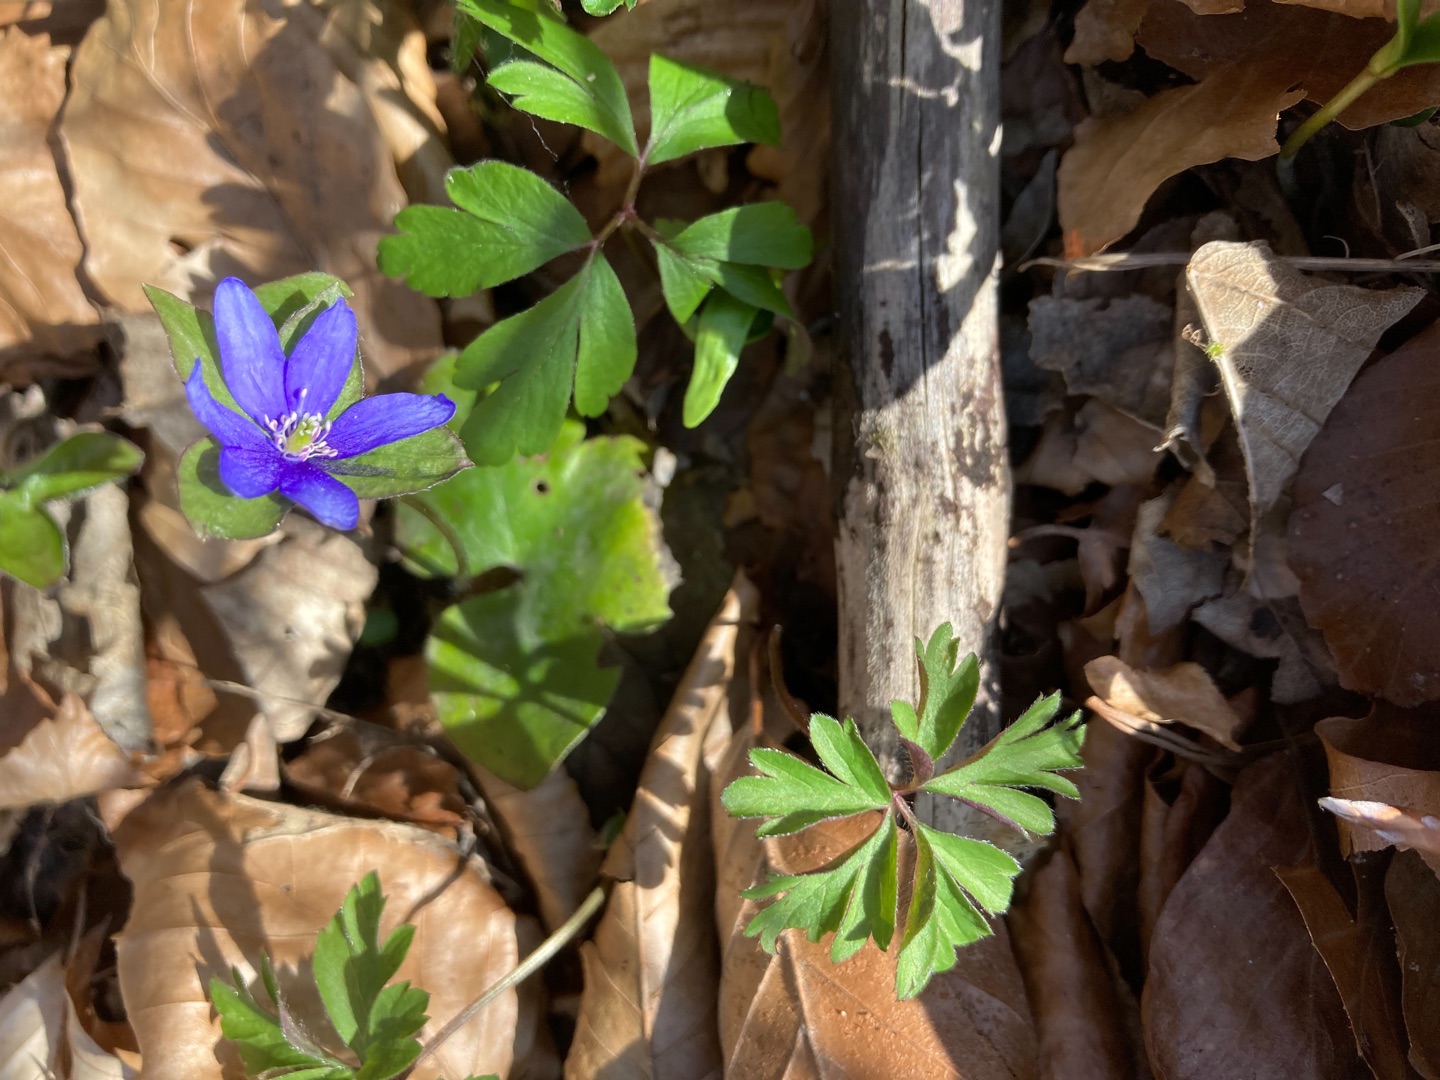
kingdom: Plantae
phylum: Tracheophyta
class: Magnoliopsida
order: Ranunculales
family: Ranunculaceae
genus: Hepatica
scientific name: Hepatica nobilis
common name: Blå anemone
